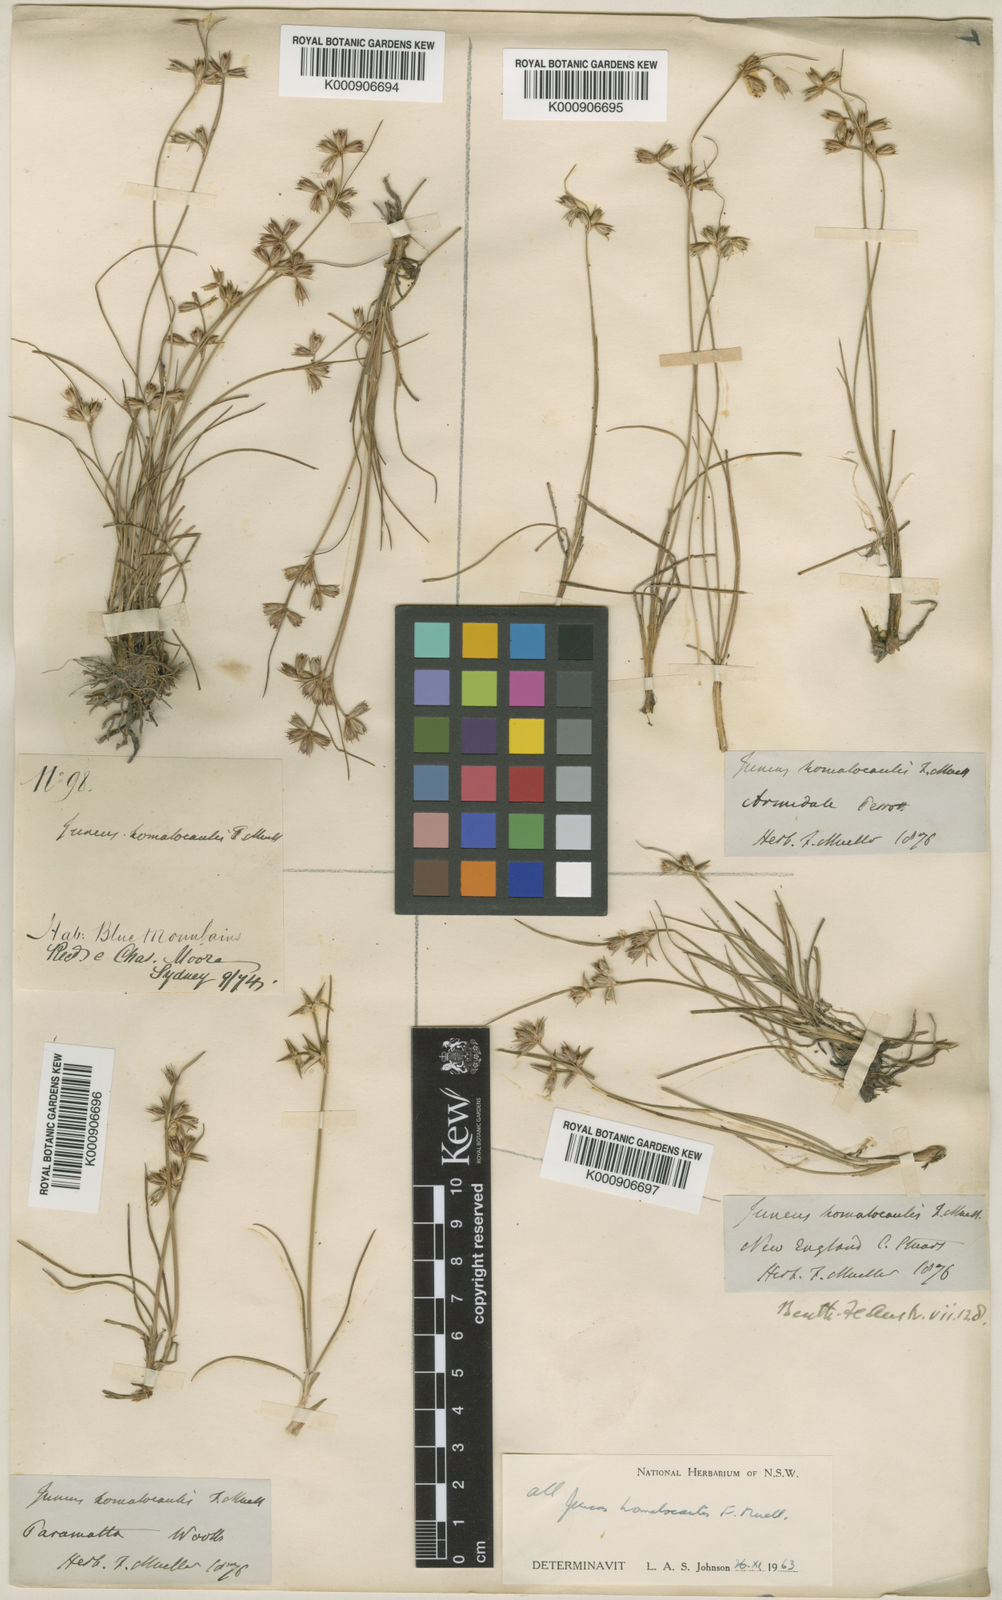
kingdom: Plantae
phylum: Tracheophyta
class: Liliopsida
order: Poales
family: Juncaceae
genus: Juncus
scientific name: Juncus
